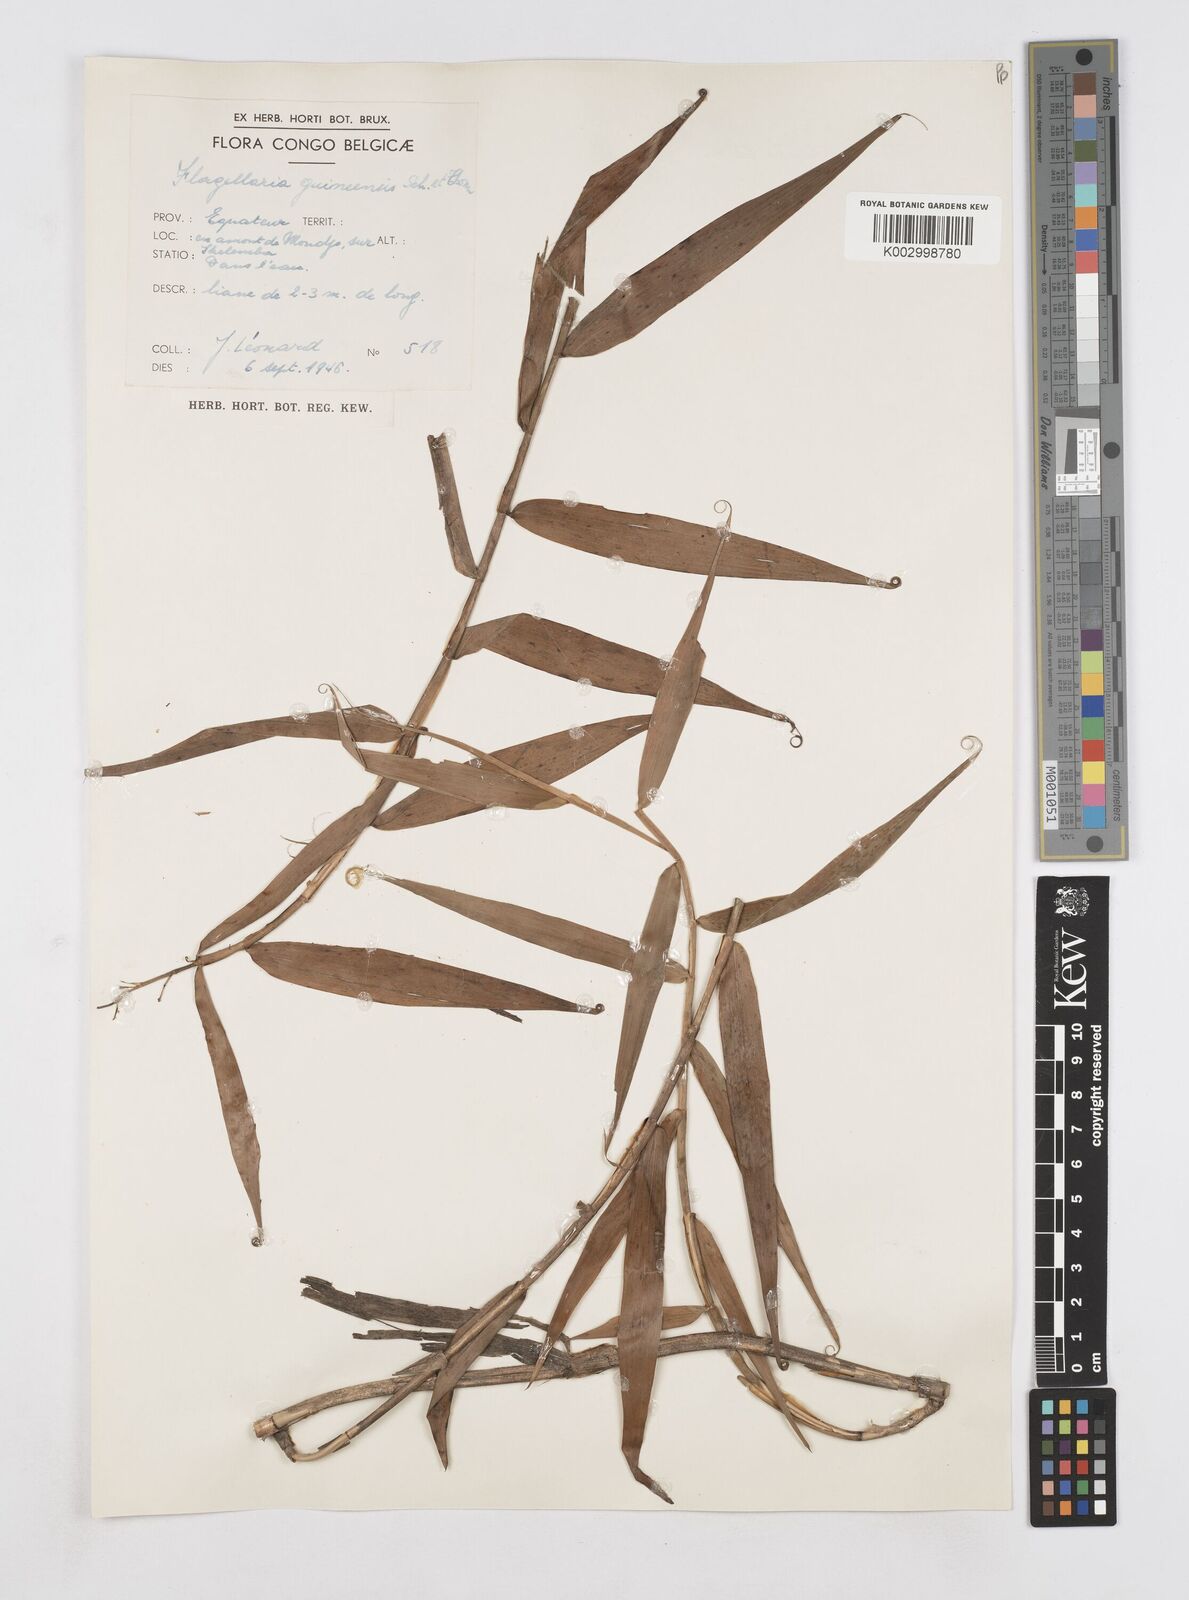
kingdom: Plantae
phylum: Tracheophyta
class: Liliopsida
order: Poales
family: Flagellariaceae
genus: Flagellaria
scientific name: Flagellaria guineensis
